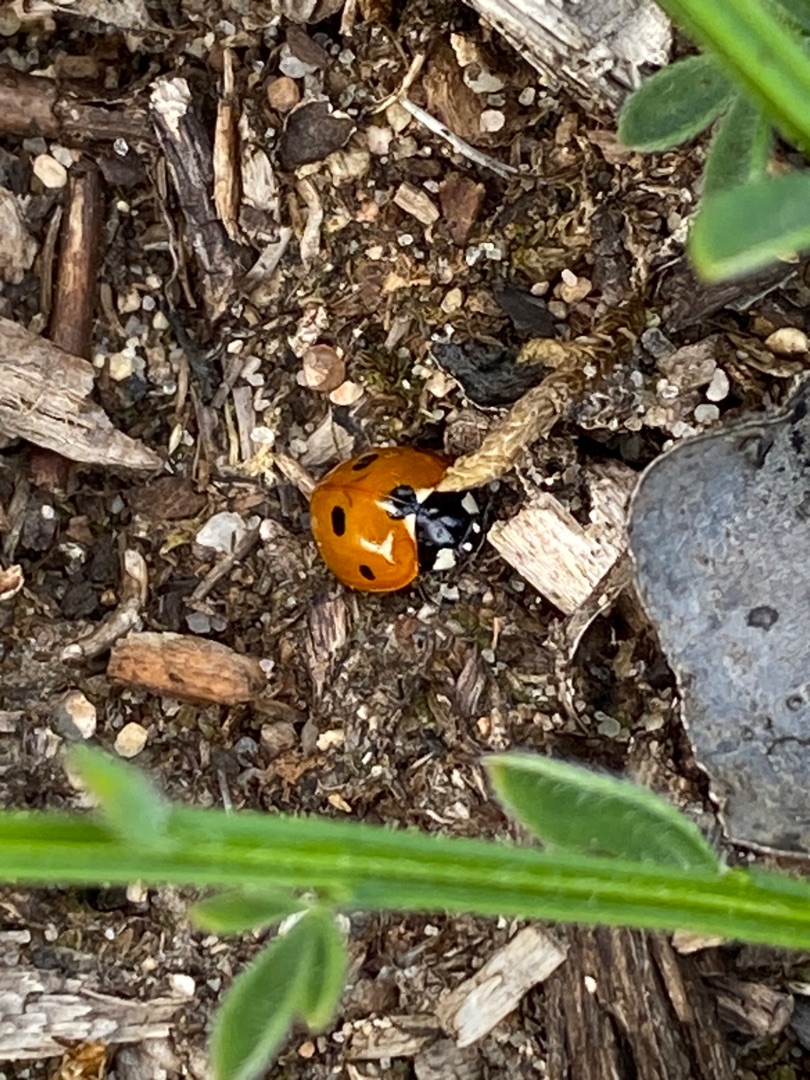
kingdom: Animalia
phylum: Arthropoda
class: Insecta
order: Coleoptera
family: Coccinellidae
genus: Coccinella
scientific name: Coccinella septempunctata
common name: Syvplettet mariehøne
